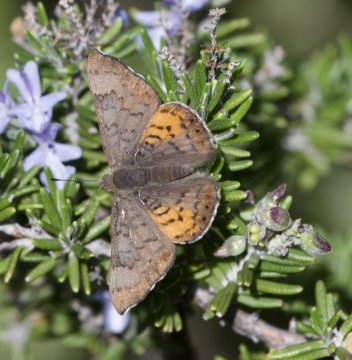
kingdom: Animalia
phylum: Arthropoda
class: Insecta
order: Lepidoptera
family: Lycaenidae
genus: Emesis
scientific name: Emesis zela
